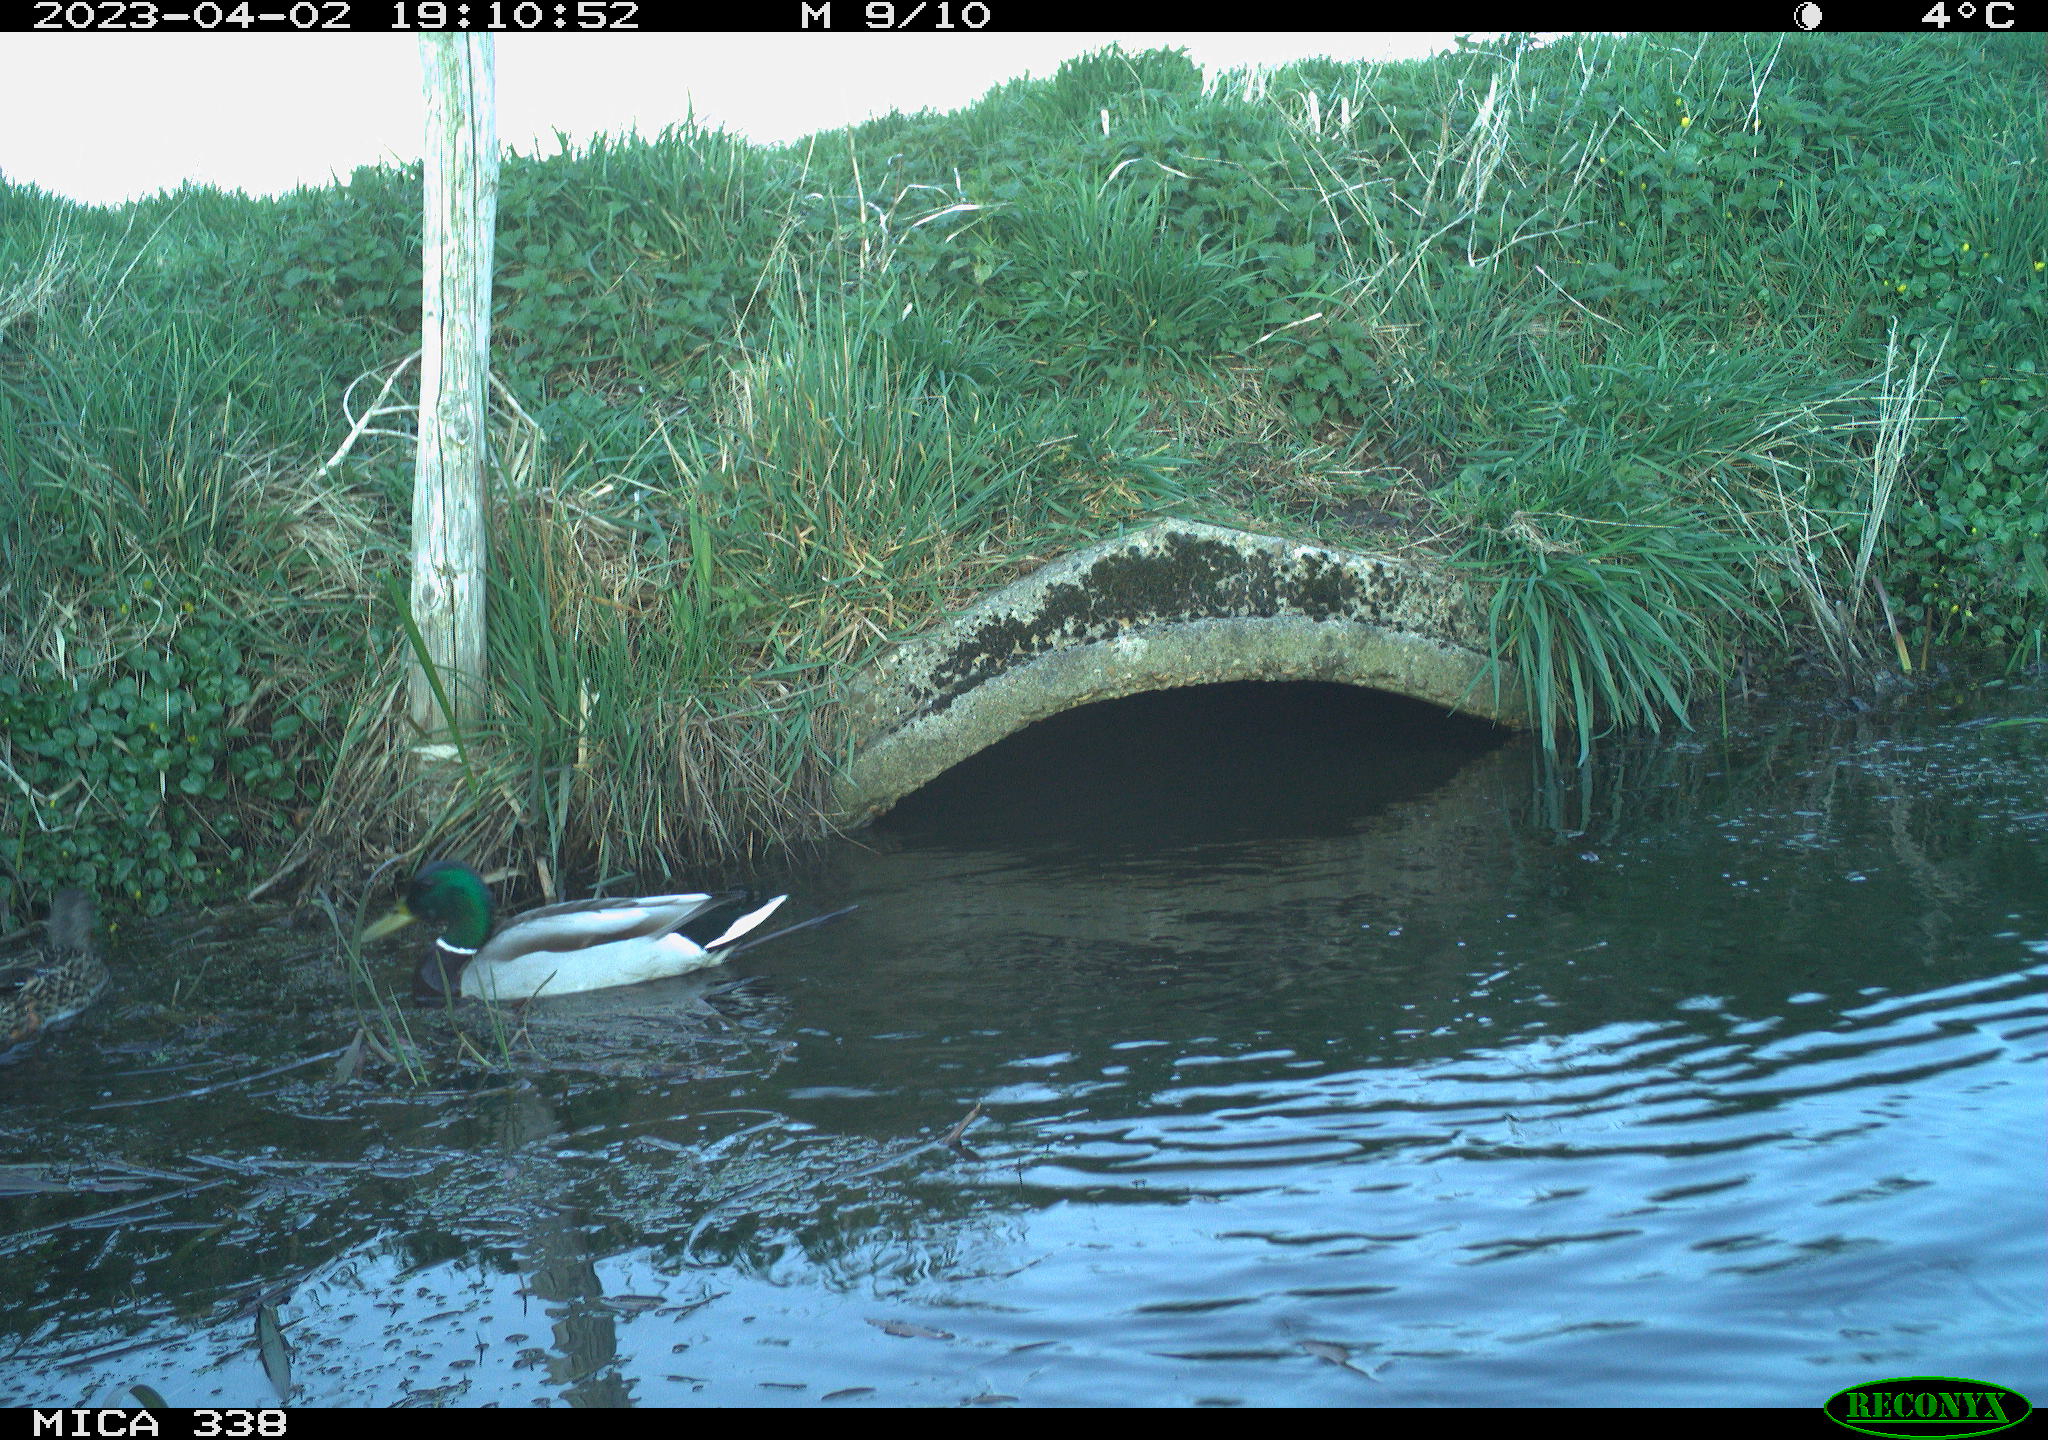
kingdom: Animalia
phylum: Chordata
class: Aves
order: Anseriformes
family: Anatidae
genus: Anas
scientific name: Anas
